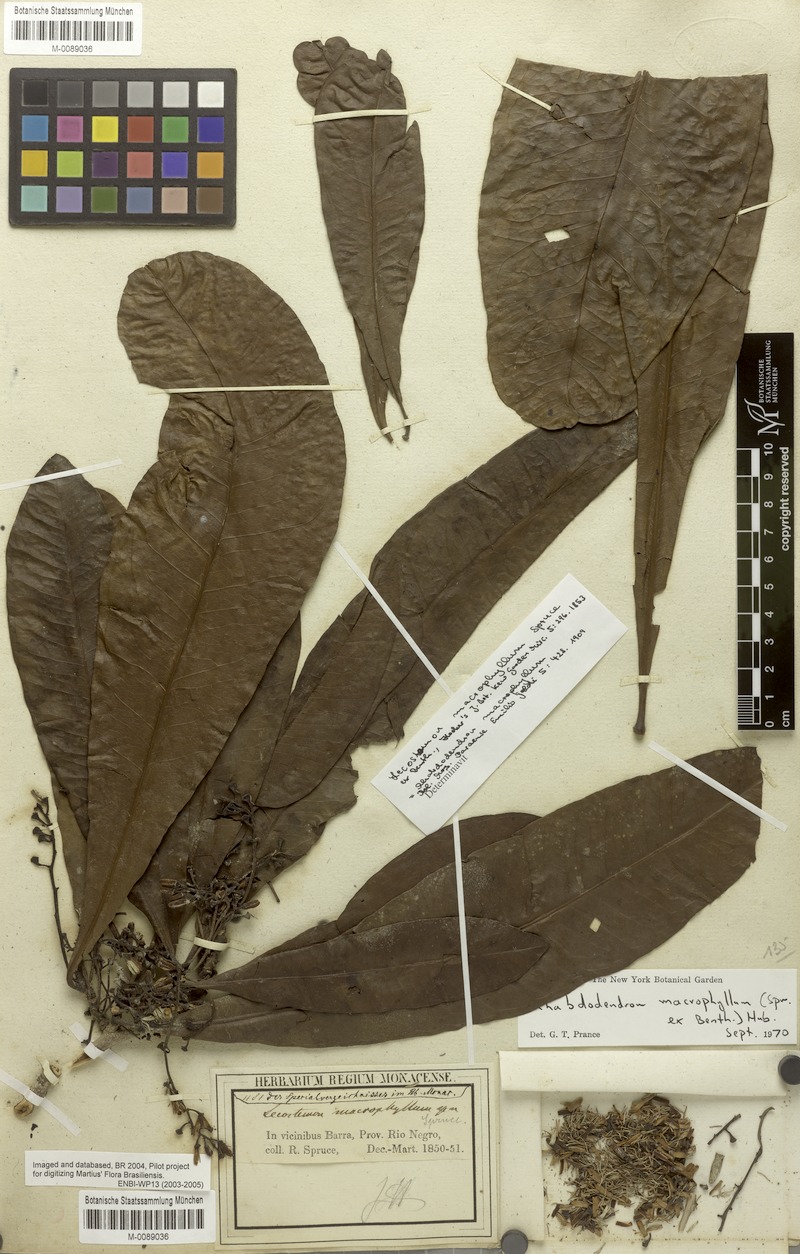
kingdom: Plantae
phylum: Tracheophyta
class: Magnoliopsida
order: Caryophyllales
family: Rhabdodendraceae
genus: Rhabdodendron
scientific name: Rhabdodendron macrophyllum
